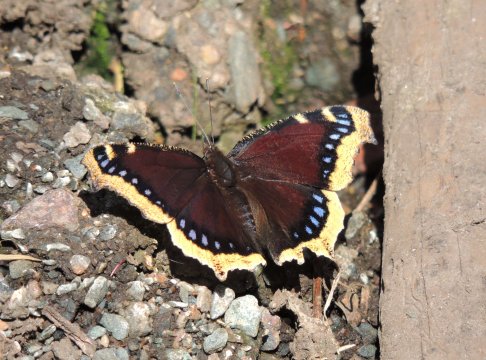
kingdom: Animalia
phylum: Arthropoda
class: Insecta
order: Lepidoptera
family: Nymphalidae
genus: Nymphalis
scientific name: Nymphalis antiopa
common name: Mourning Cloak
